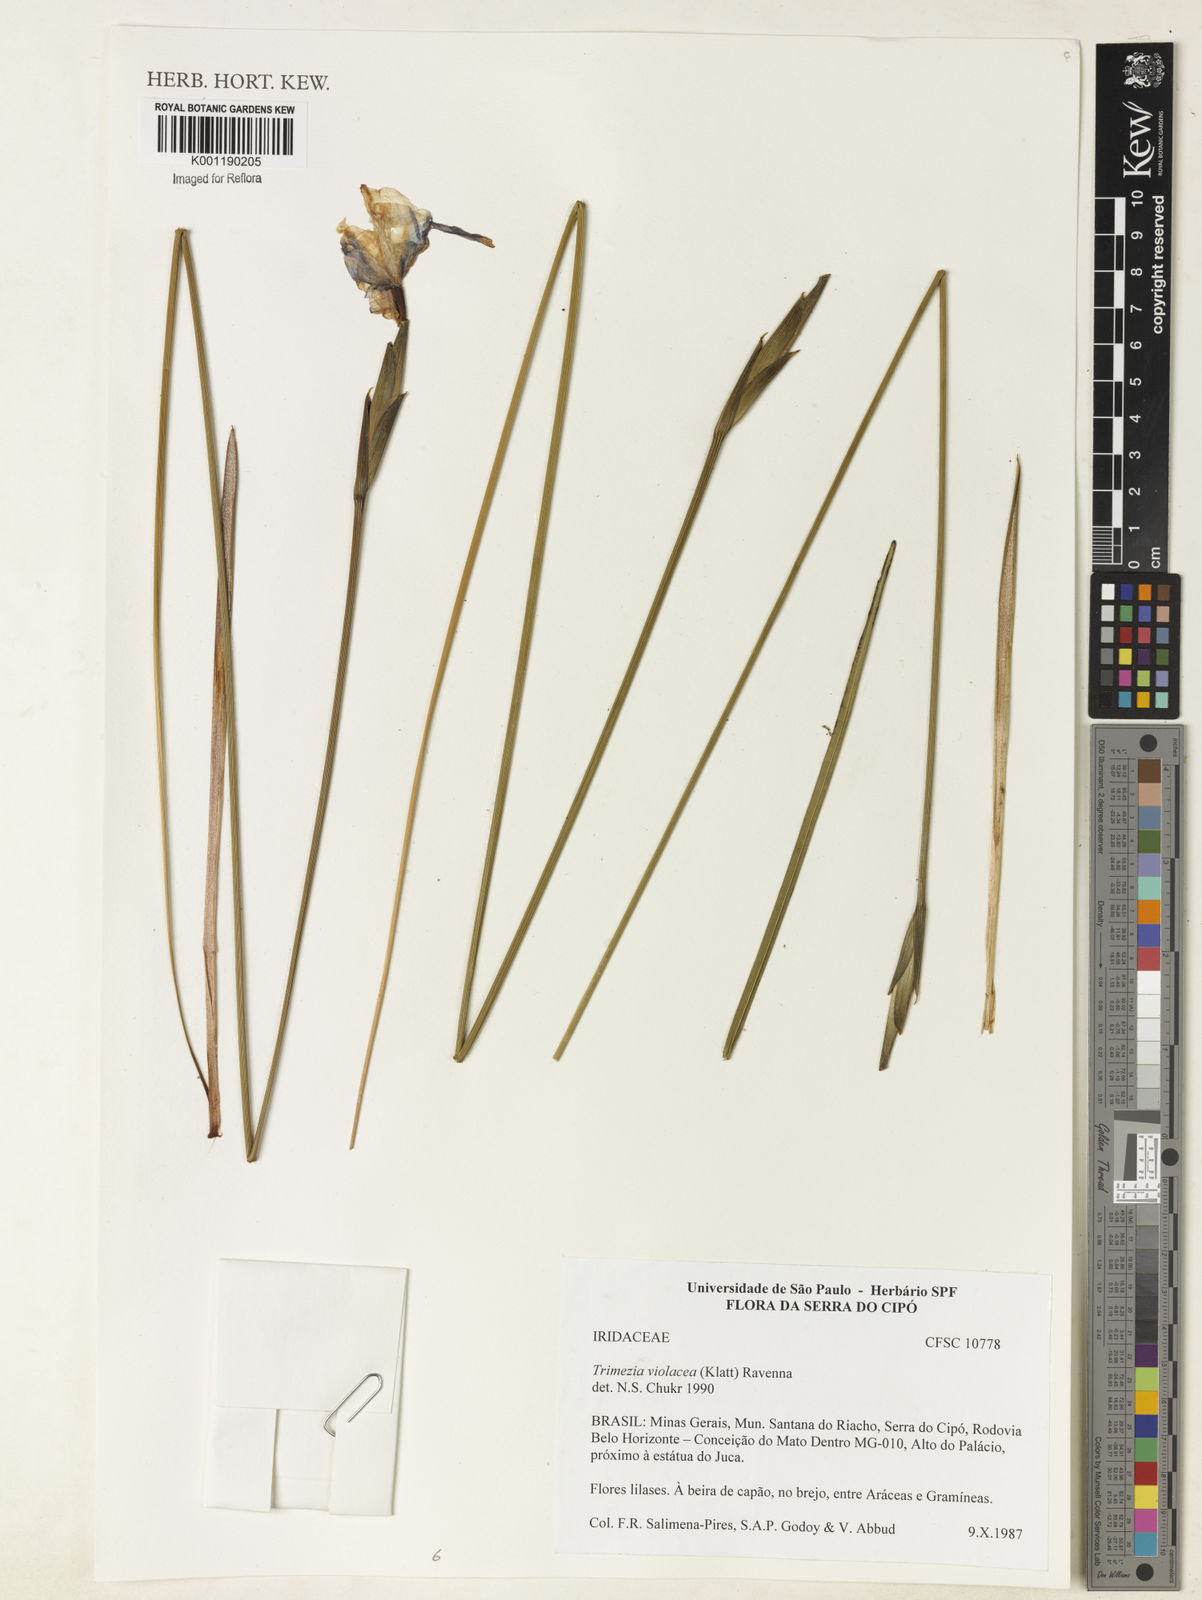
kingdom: Plantae
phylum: Tracheophyta
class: Liliopsida
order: Asparagales
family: Iridaceae
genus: Trimezia
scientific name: Trimezia violacea
